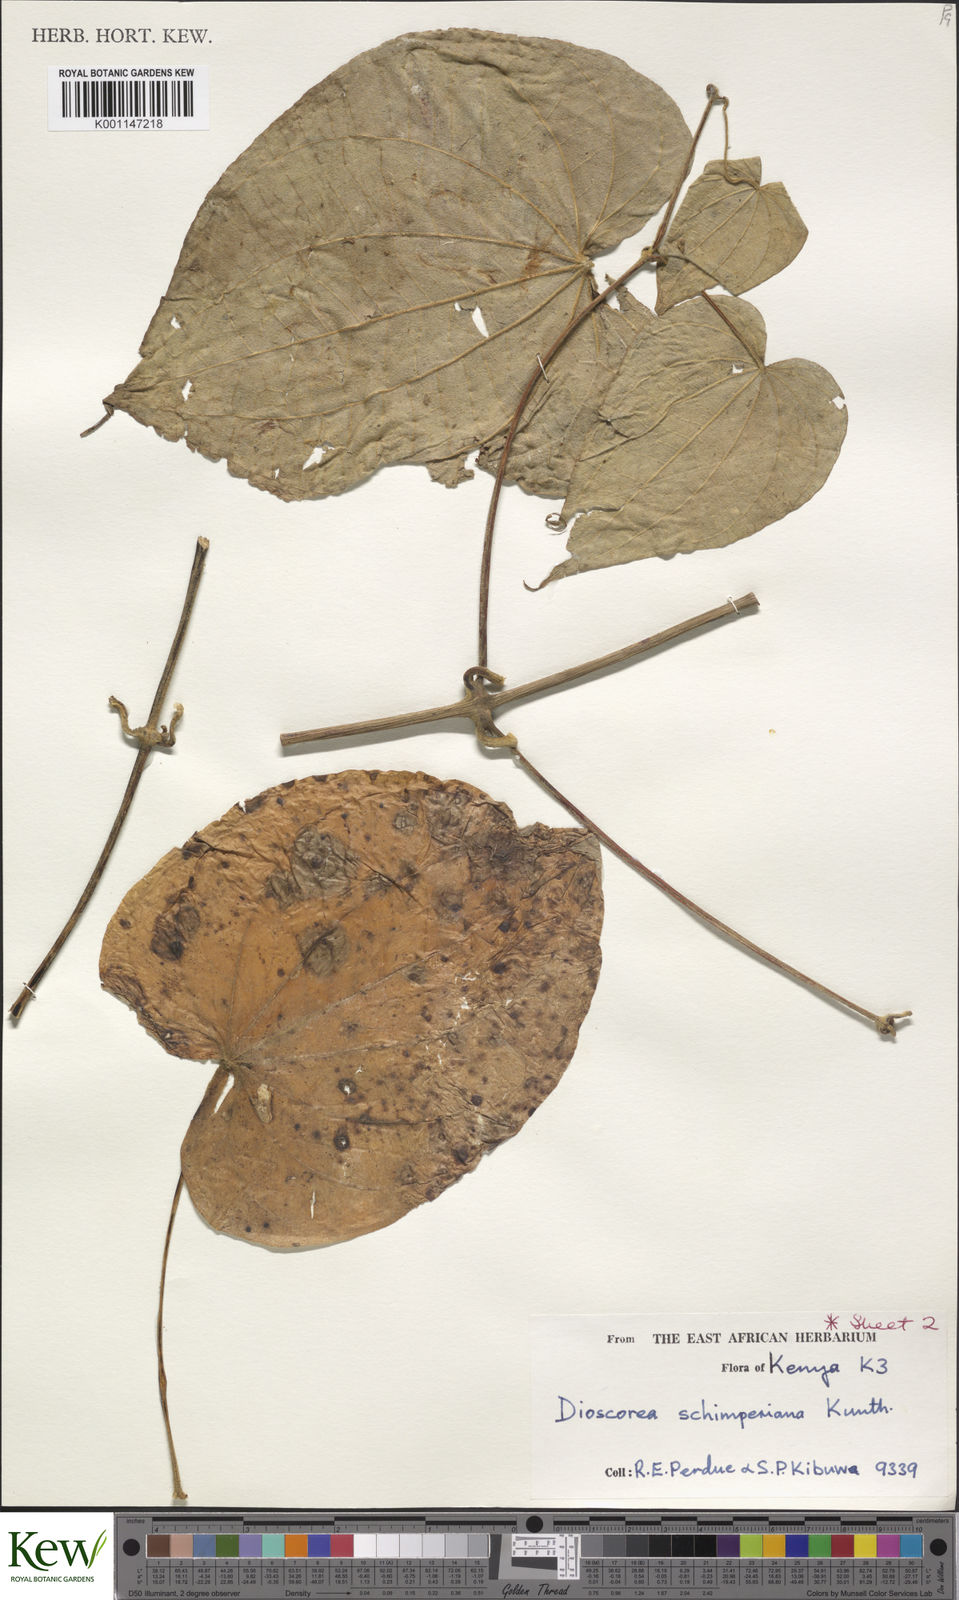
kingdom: Plantae
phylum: Tracheophyta
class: Liliopsida
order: Dioscoreales
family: Dioscoreaceae
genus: Dioscorea
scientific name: Dioscorea schimperiana
